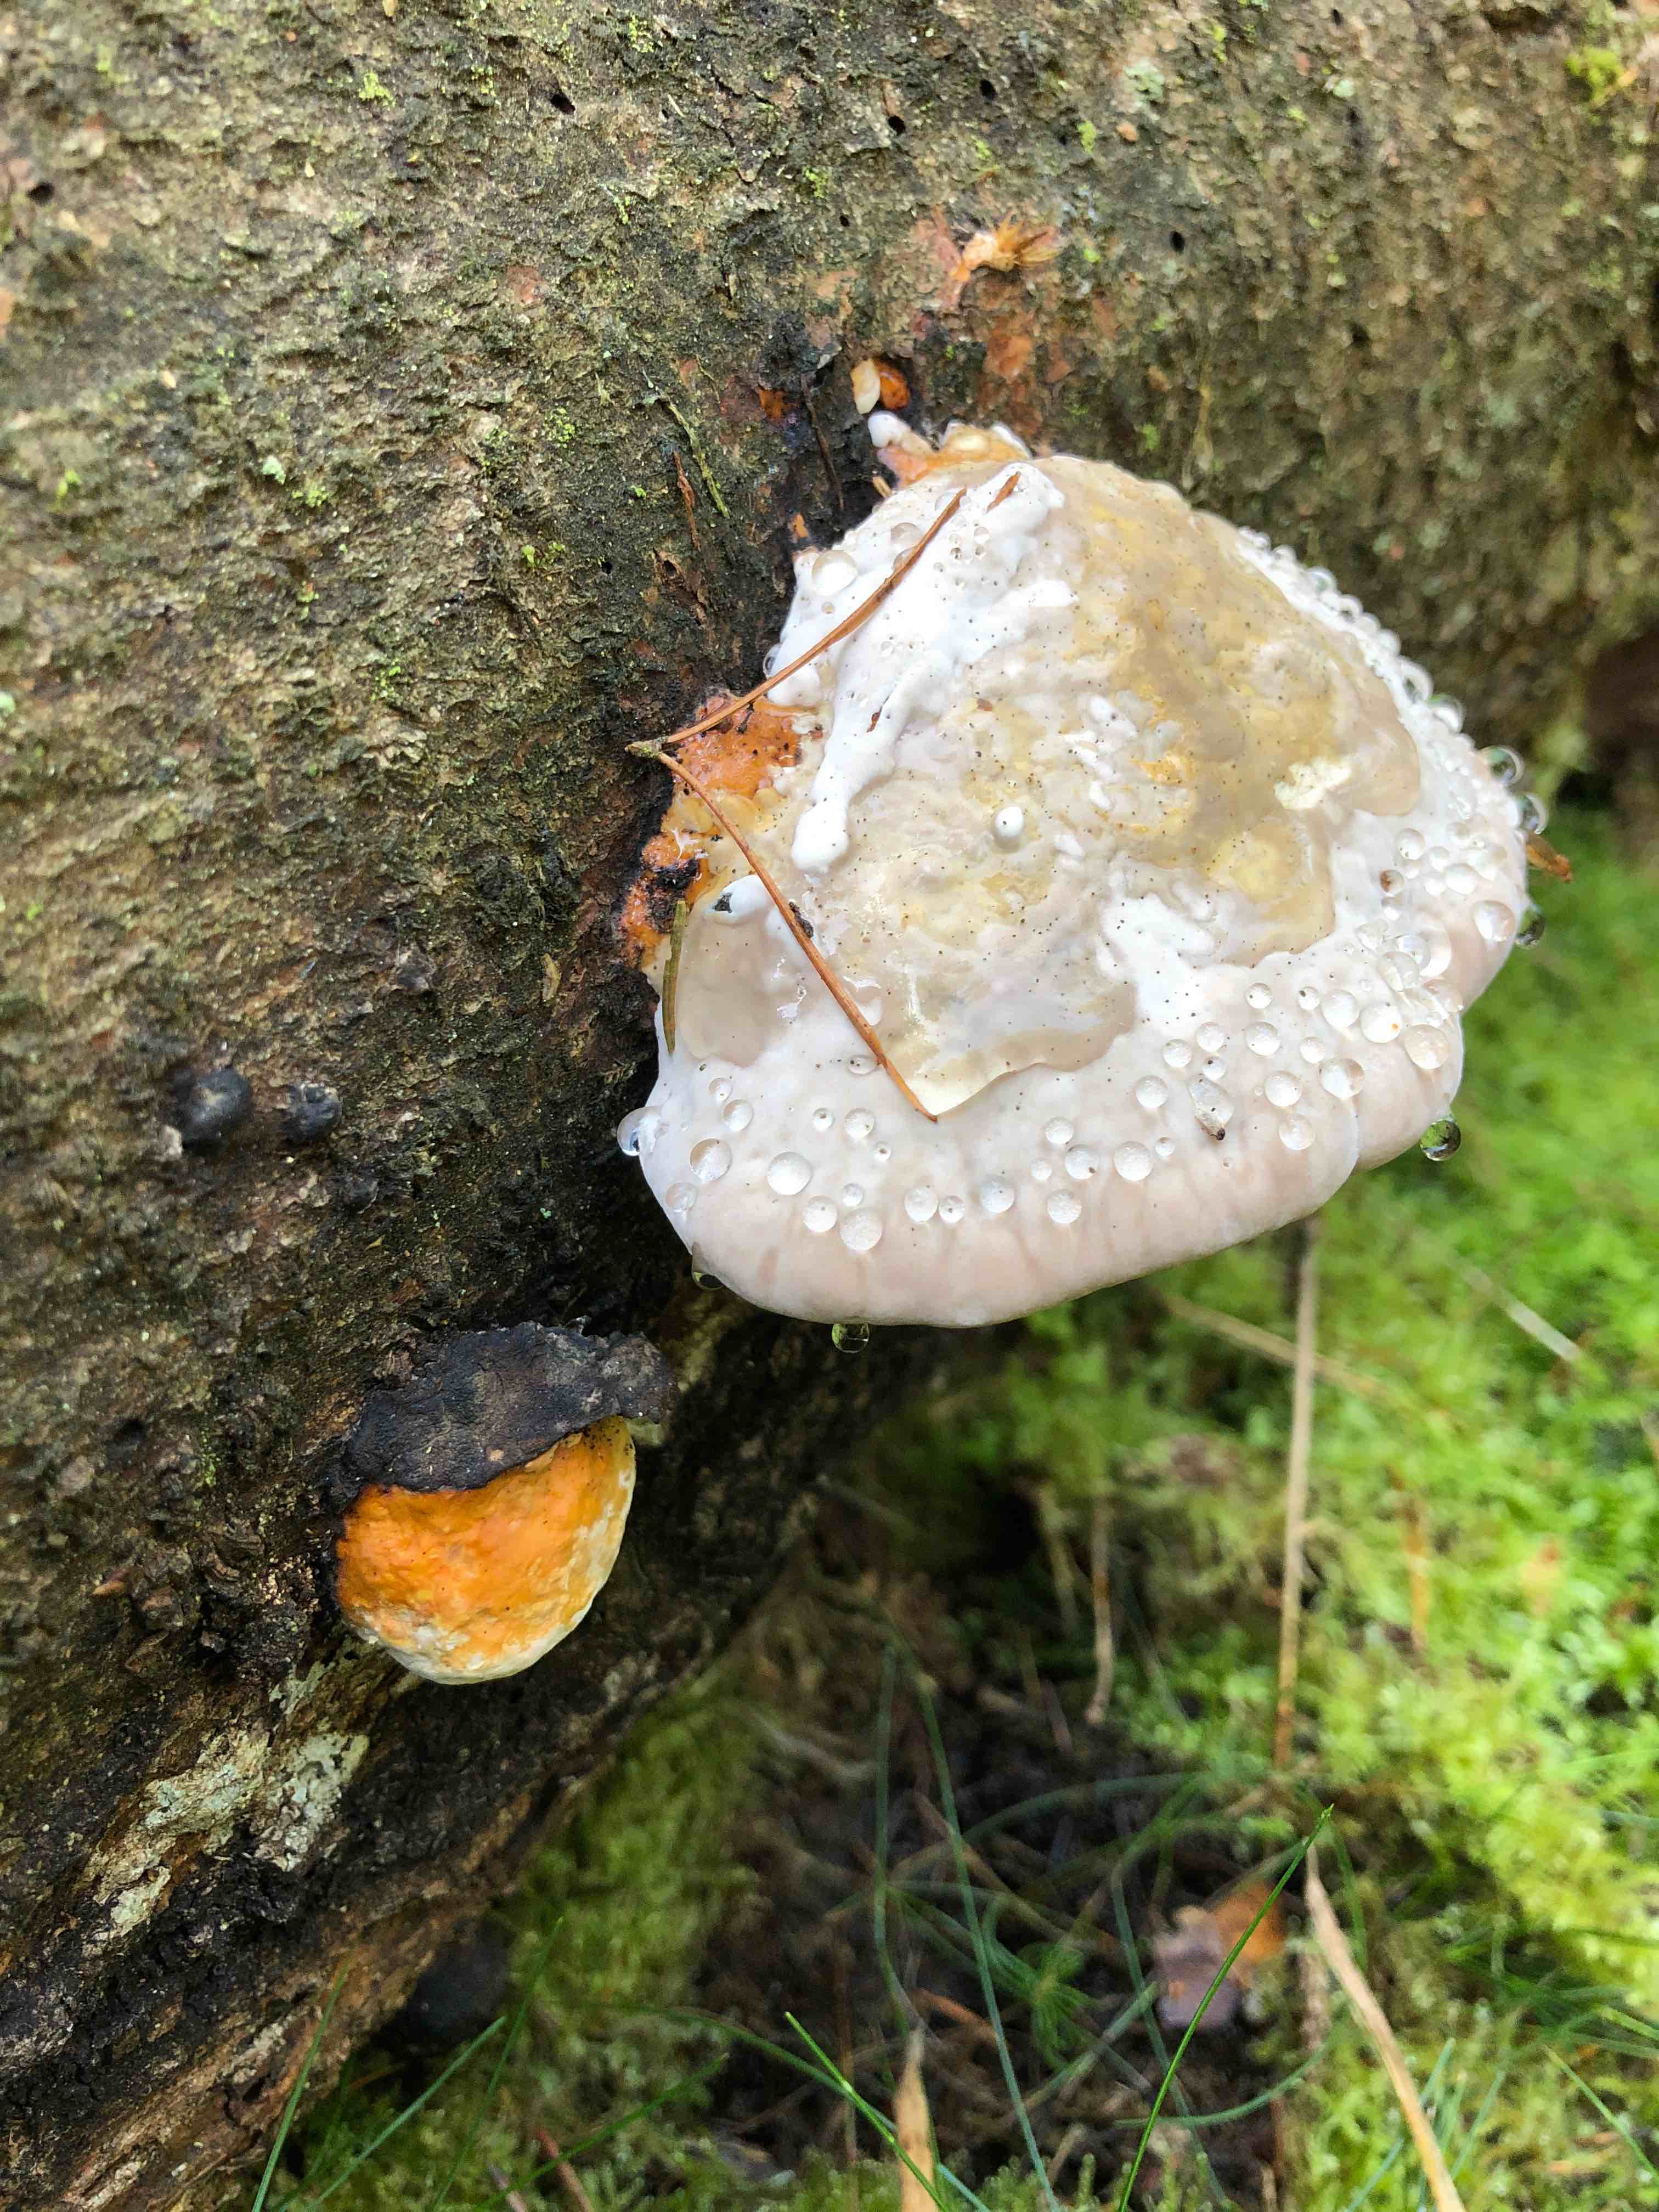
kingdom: Fungi
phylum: Basidiomycota
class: Agaricomycetes
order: Polyporales
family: Fomitopsidaceae
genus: Fomitopsis
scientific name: Fomitopsis pinicola
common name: randbæltet hovporesvamp
